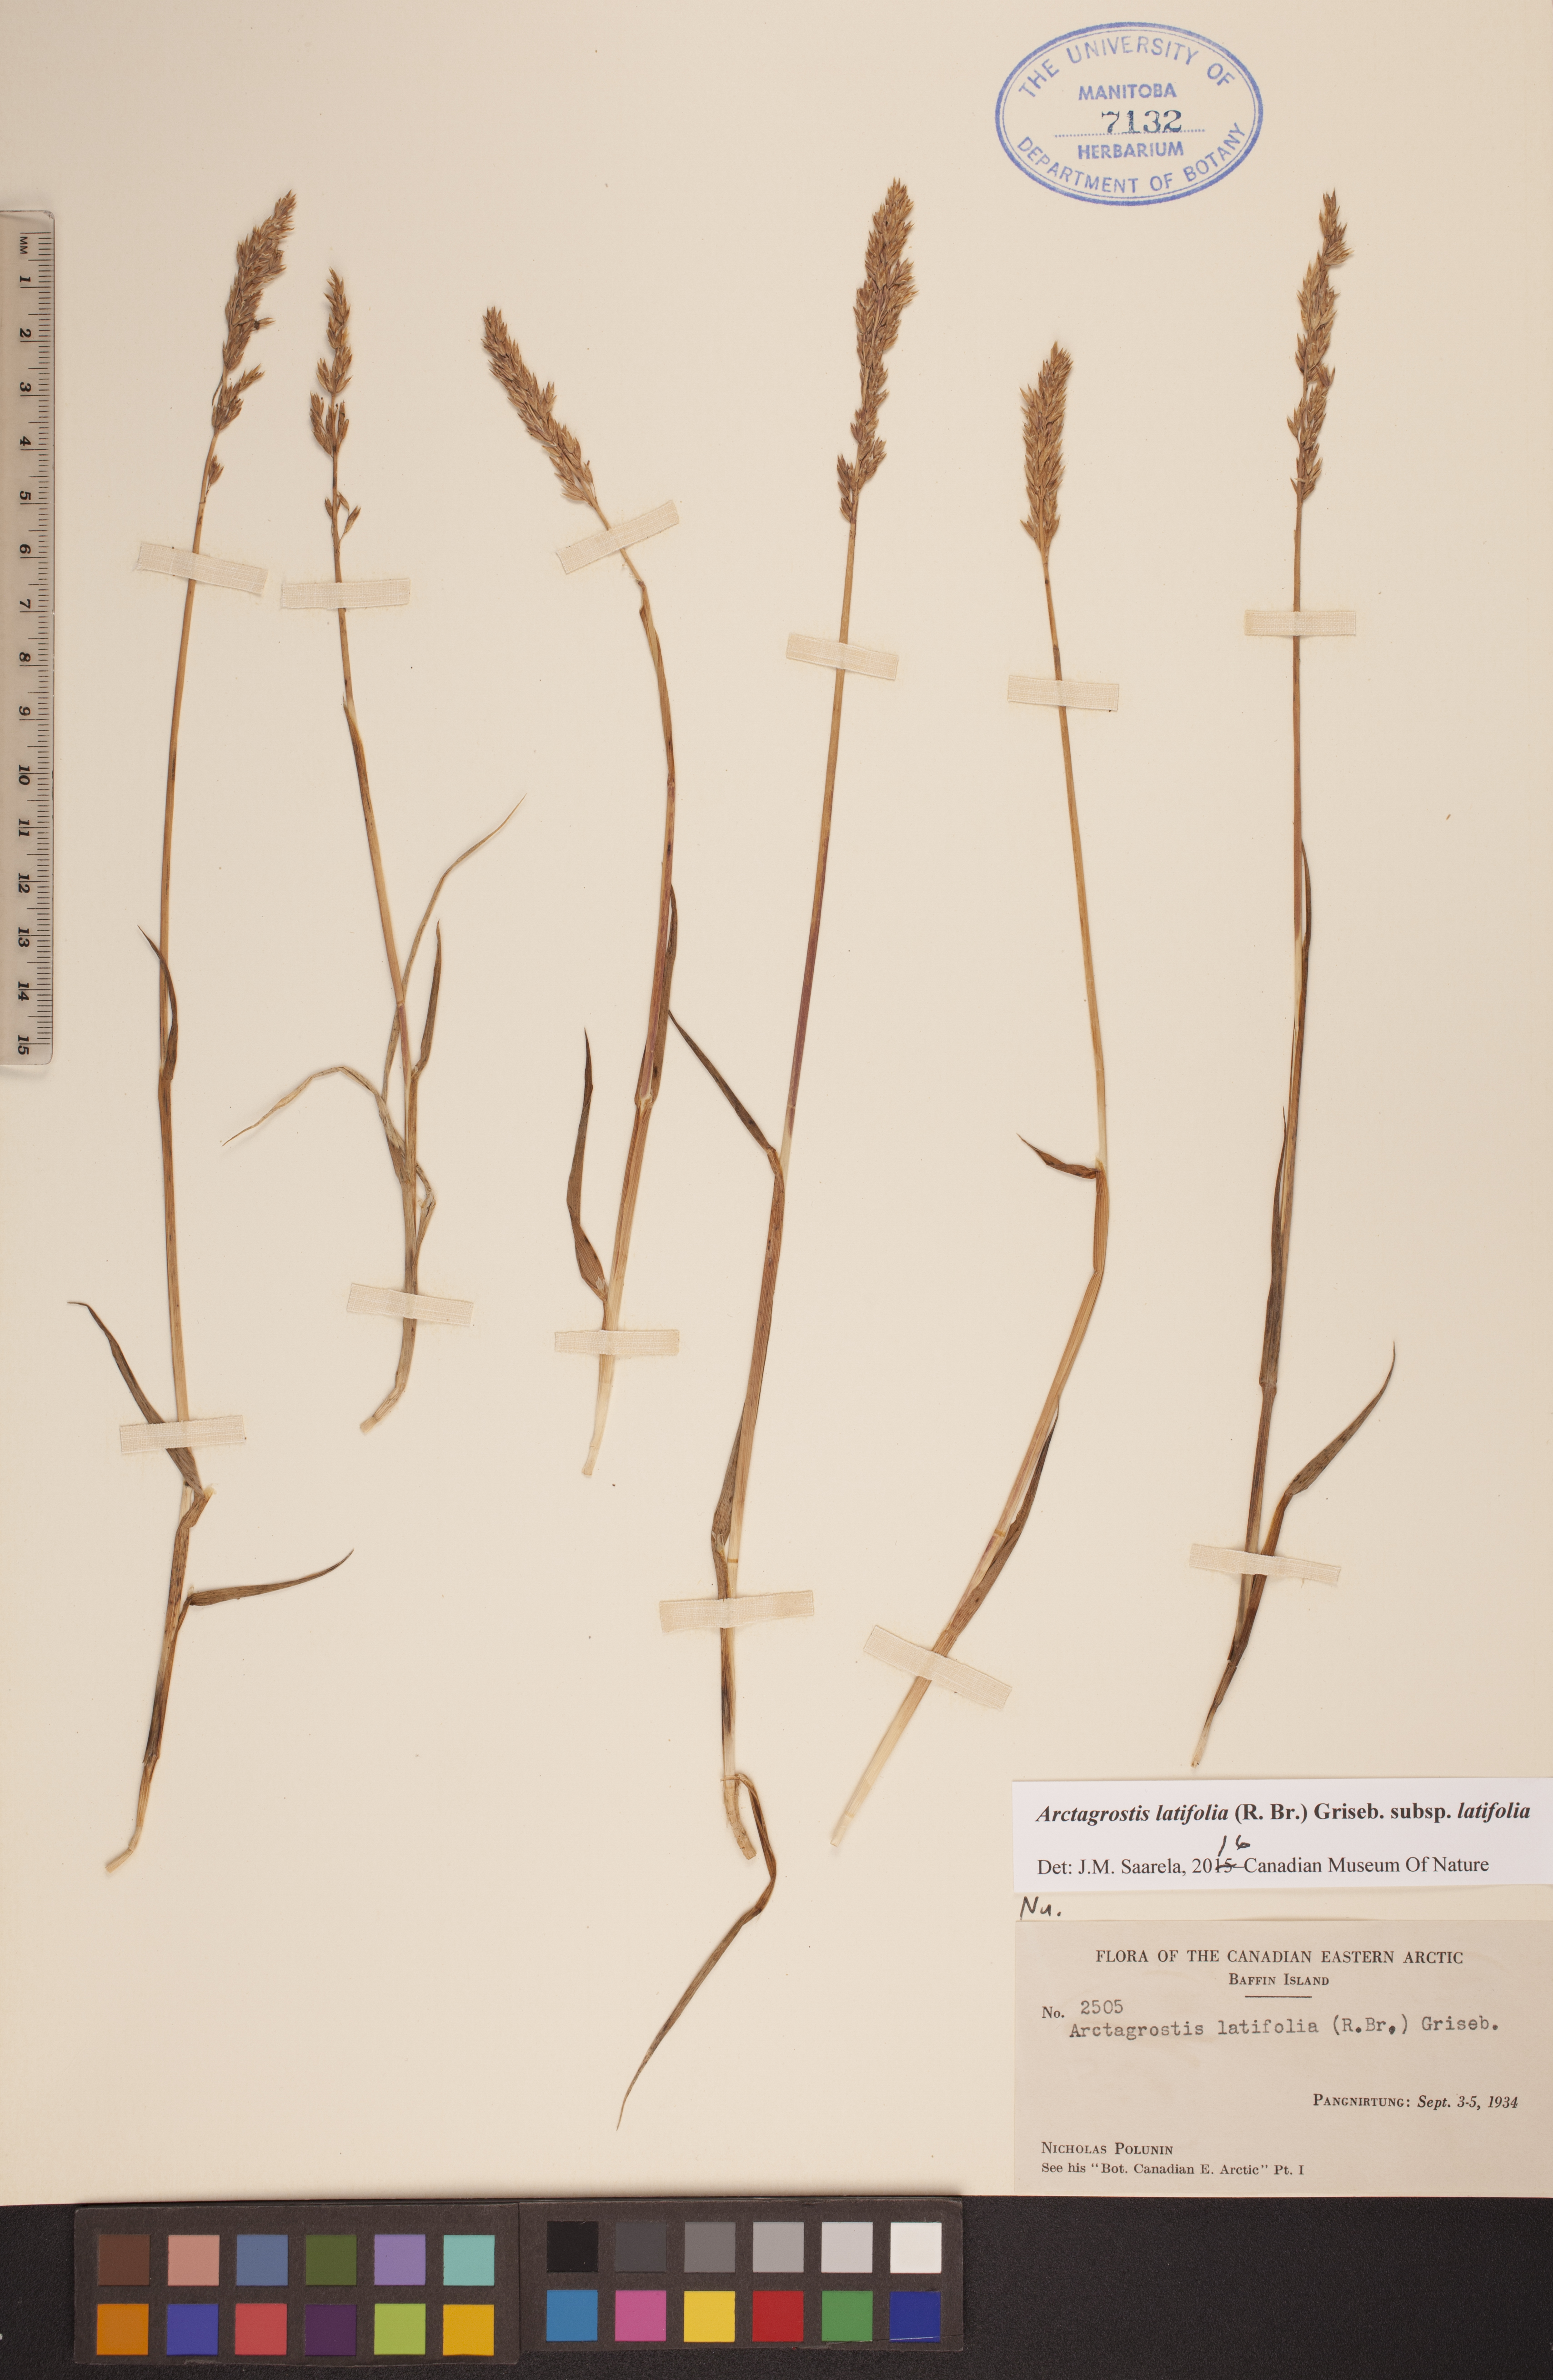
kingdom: Plantae
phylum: Tracheophyta
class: Liliopsida
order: Poales
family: Poaceae
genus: Arctagrostis
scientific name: Arctagrostis latifolia
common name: Arctic grass
